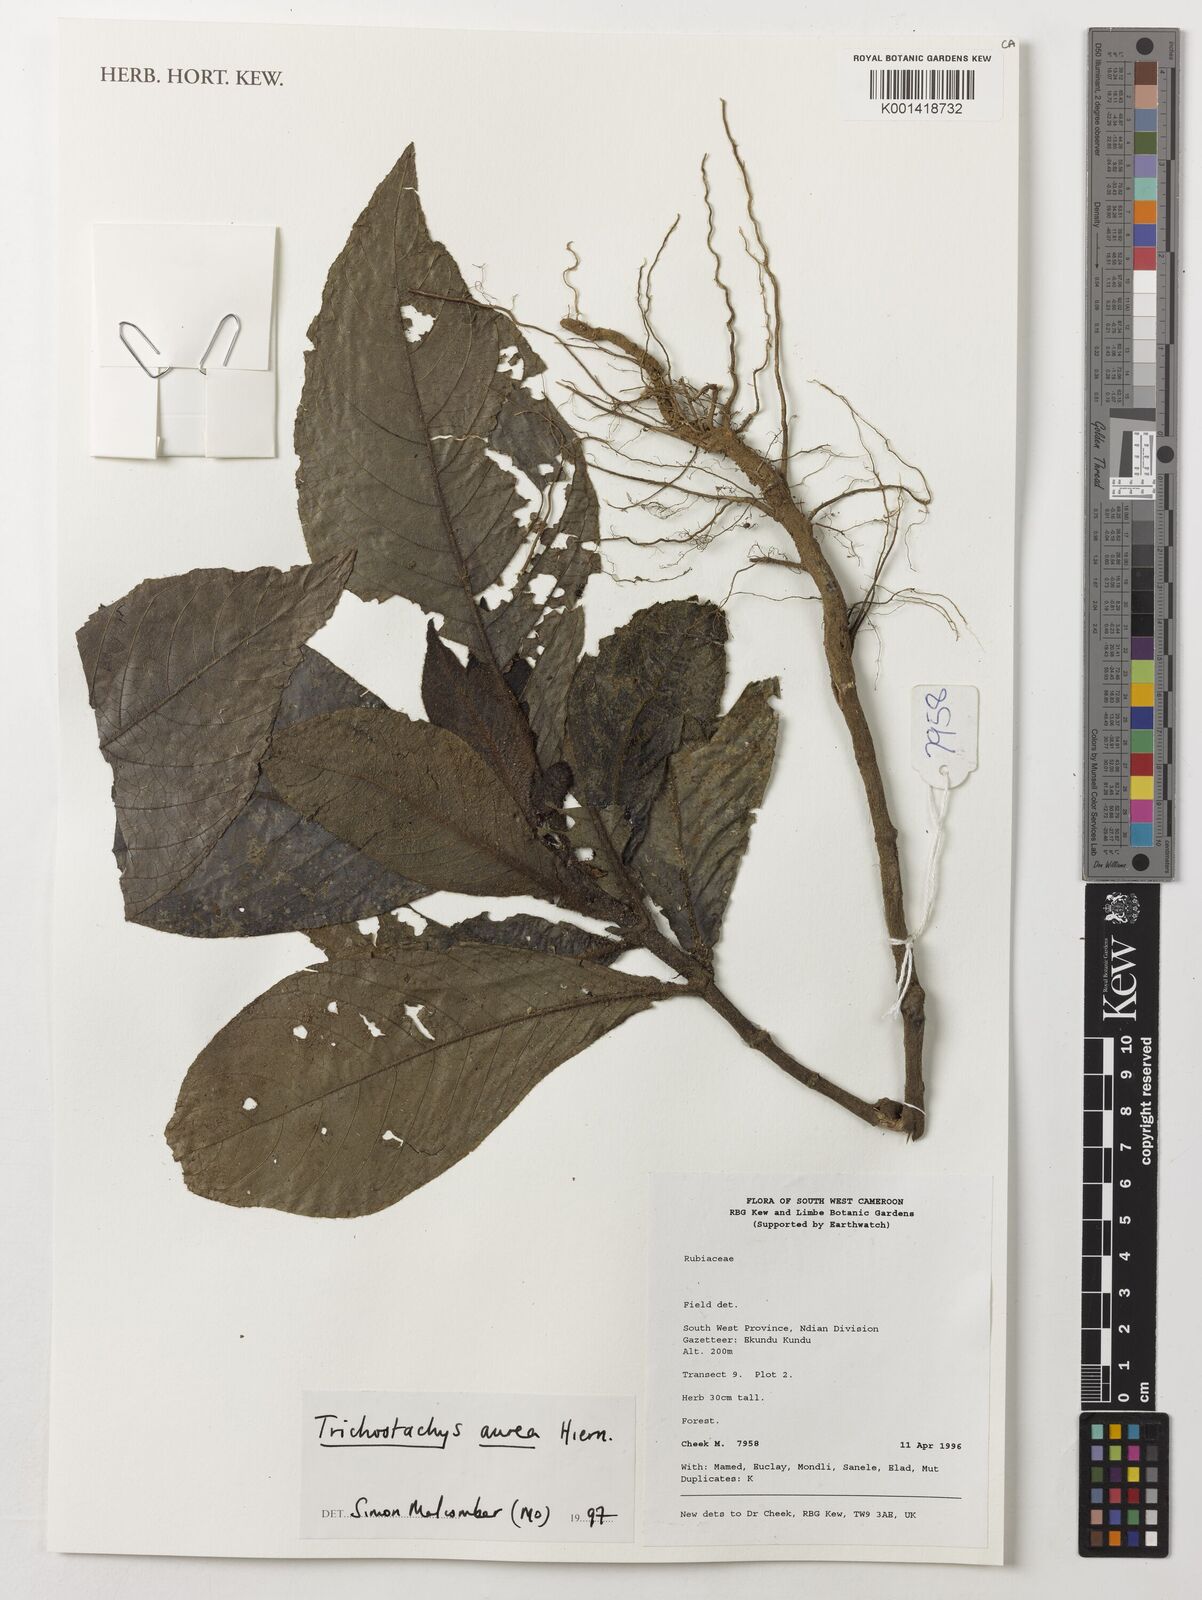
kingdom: Plantae
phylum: Tracheophyta
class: Magnoliopsida
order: Gentianales
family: Rubiaceae
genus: Trichostachys
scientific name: Trichostachys aurea
